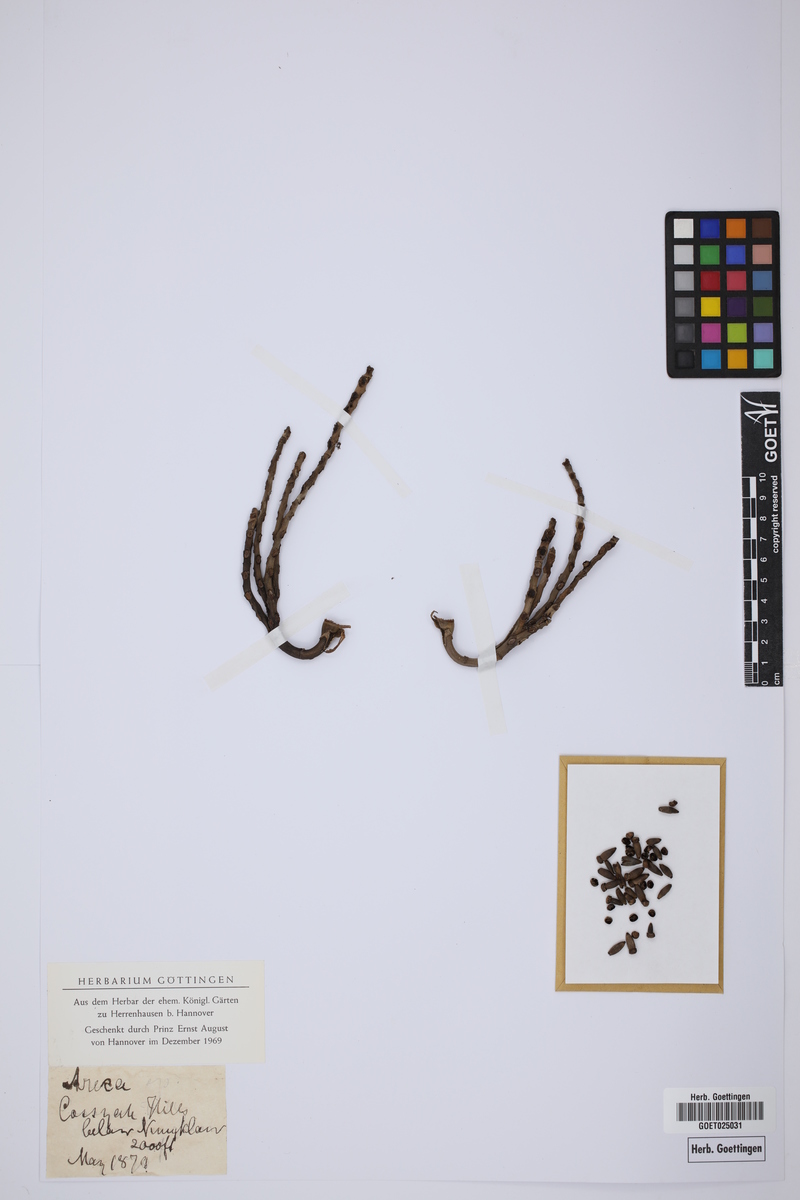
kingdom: Plantae
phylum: Tracheophyta
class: Liliopsida
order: Arecales
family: Arecaceae
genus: Areca
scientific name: Areca
